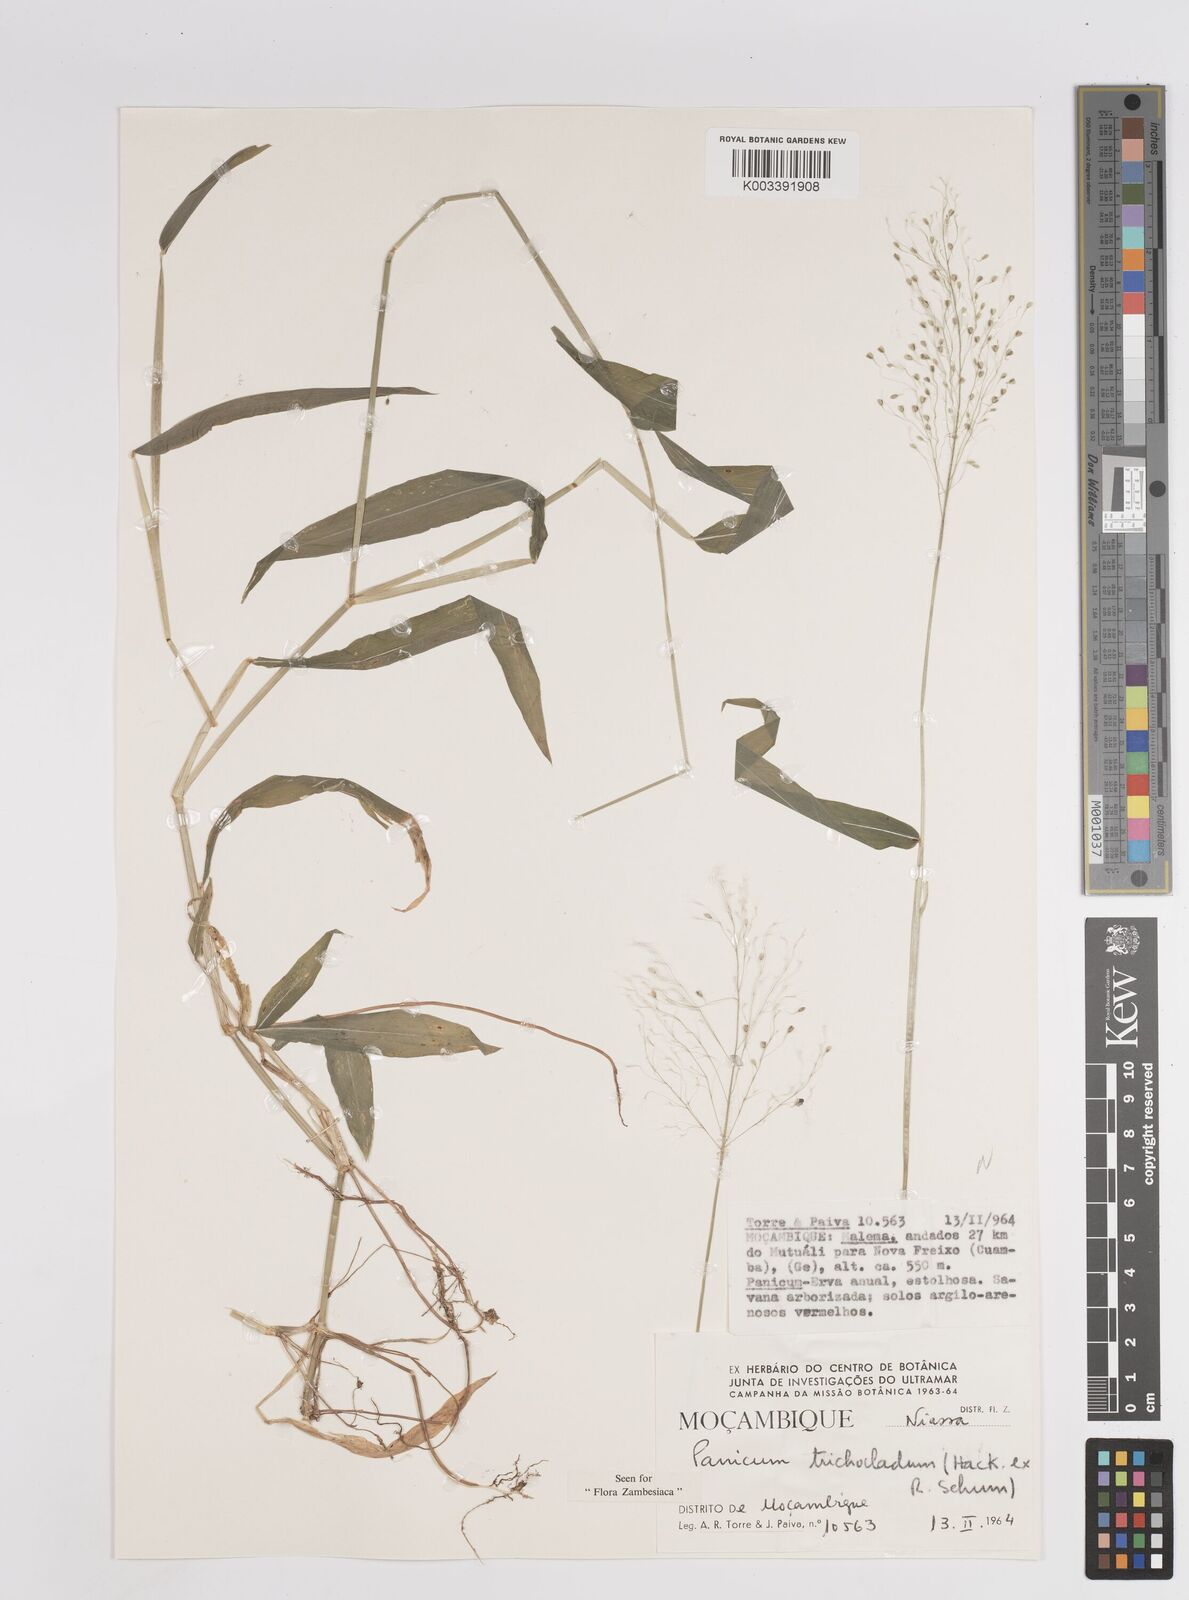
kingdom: Plantae
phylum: Tracheophyta
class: Liliopsida
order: Poales
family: Poaceae
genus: Panicum
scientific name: Panicum trichocladum
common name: Donkey grass
